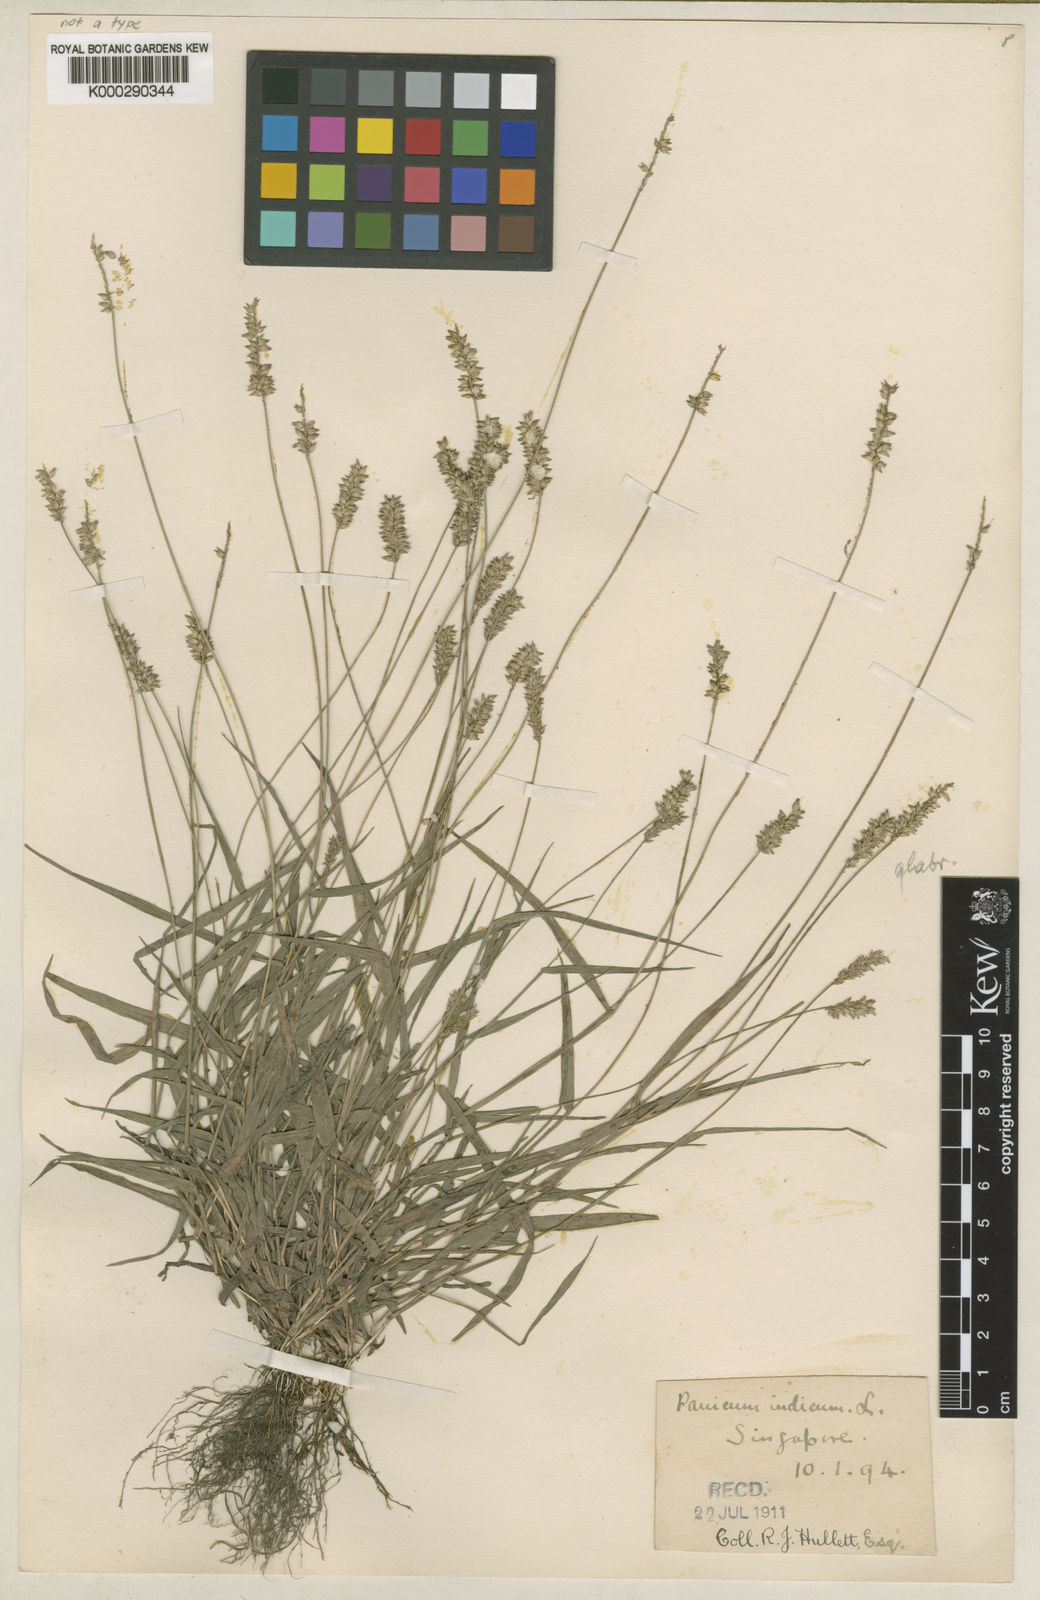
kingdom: Plantae
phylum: Tracheophyta
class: Liliopsida
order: Poales
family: Poaceae
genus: Sacciolepis
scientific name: Sacciolepis indica
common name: Glenwoodgrass
